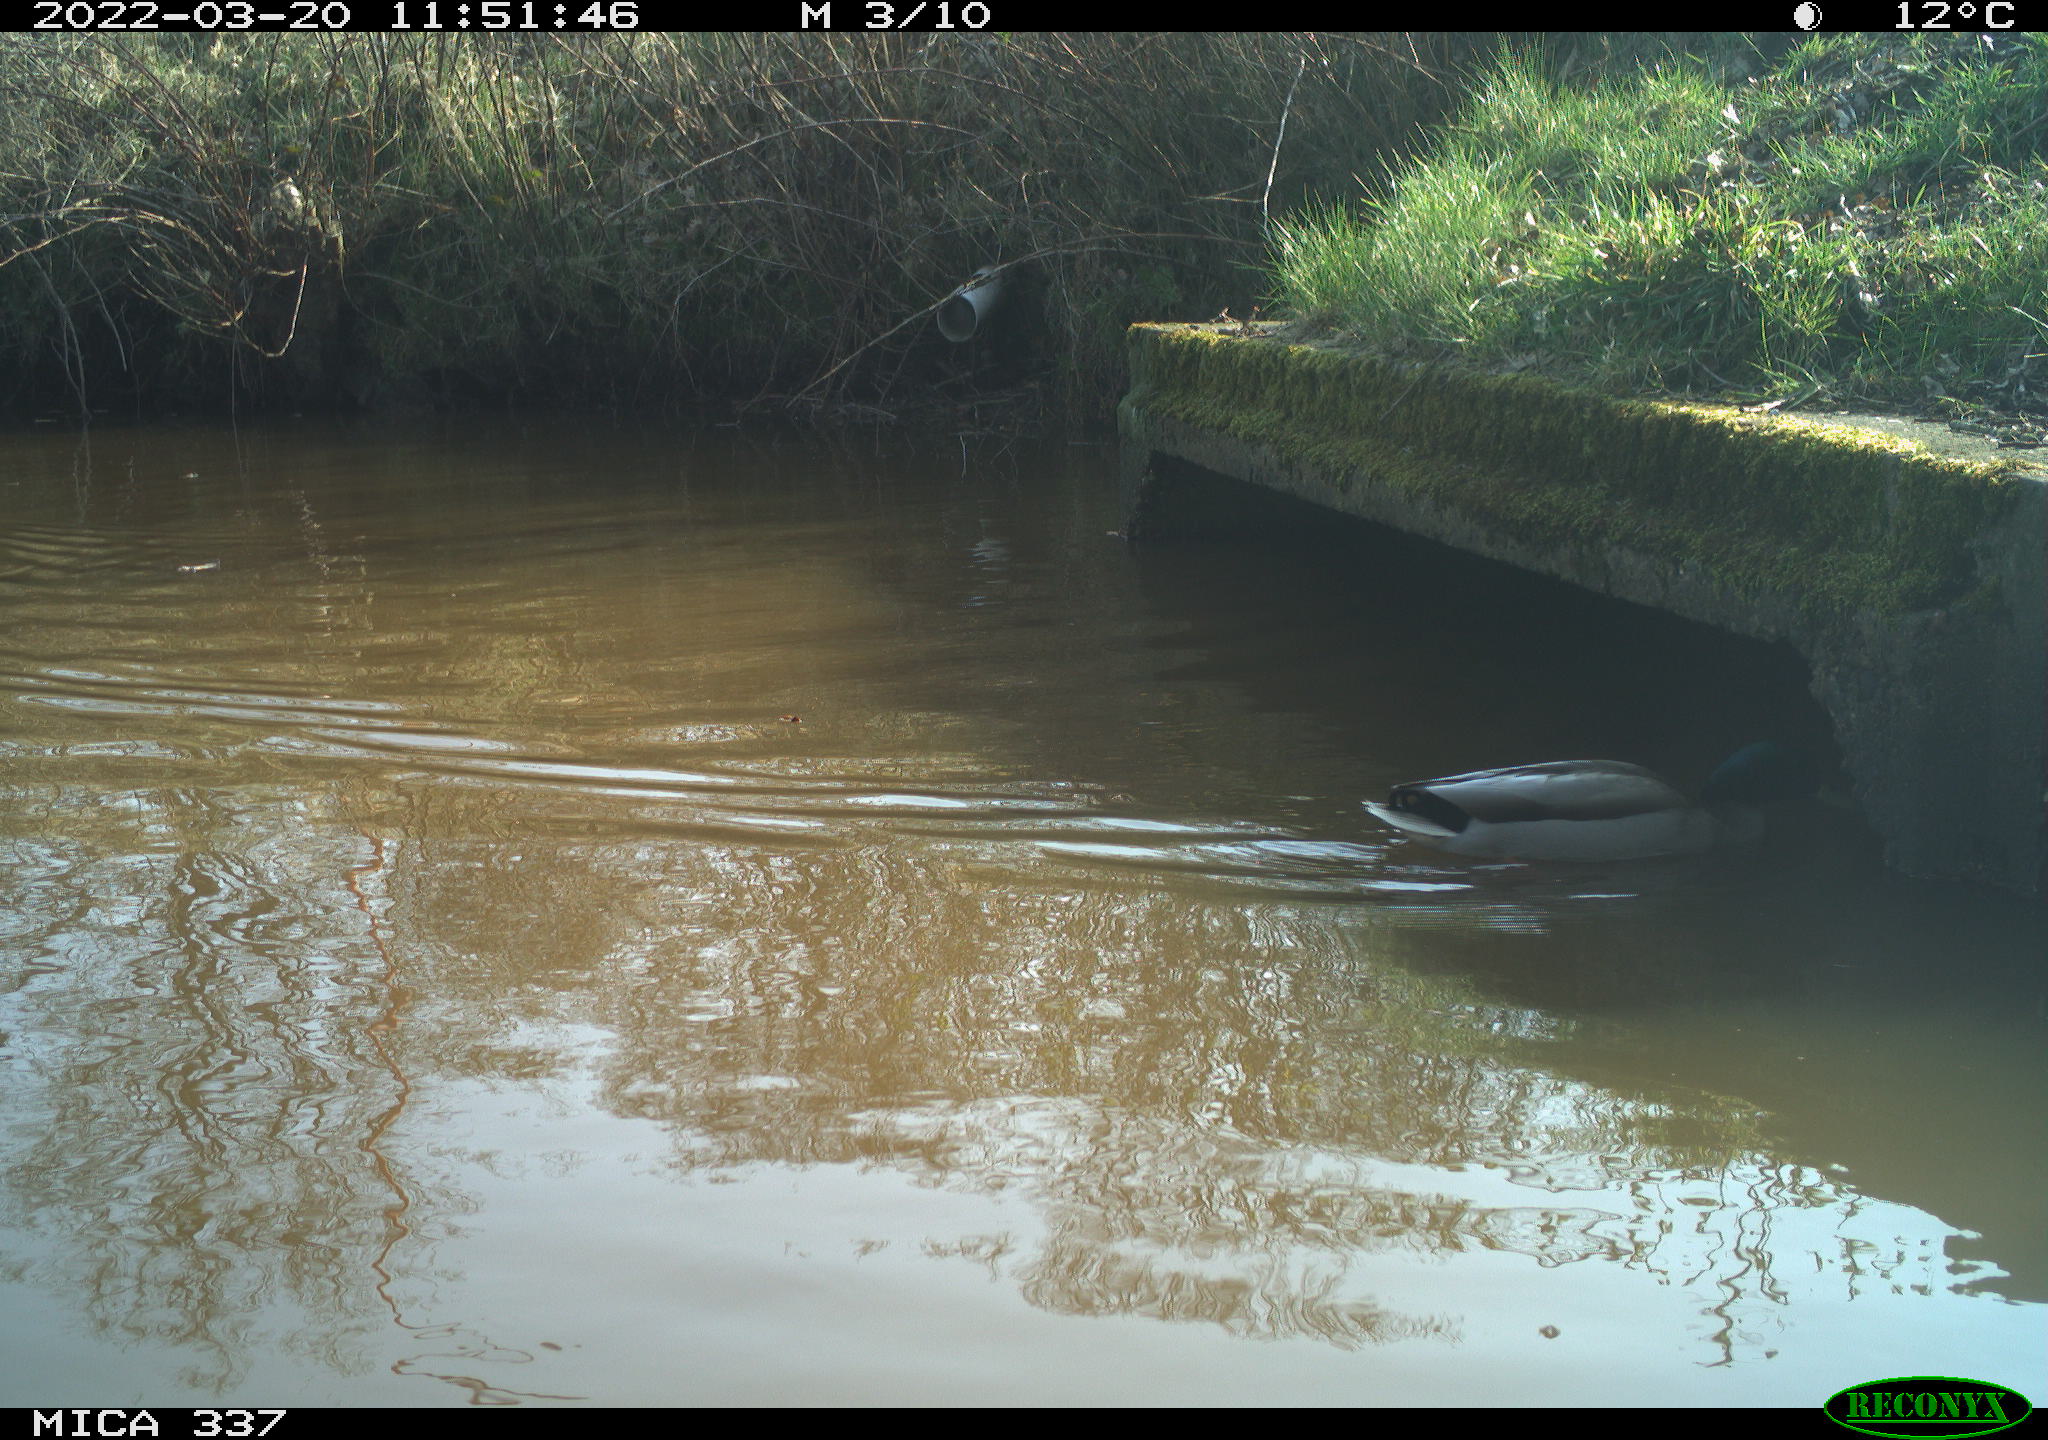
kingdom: Animalia
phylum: Chordata
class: Aves
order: Anseriformes
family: Anatidae
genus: Anas
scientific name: Anas platyrhynchos
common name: Mallard
